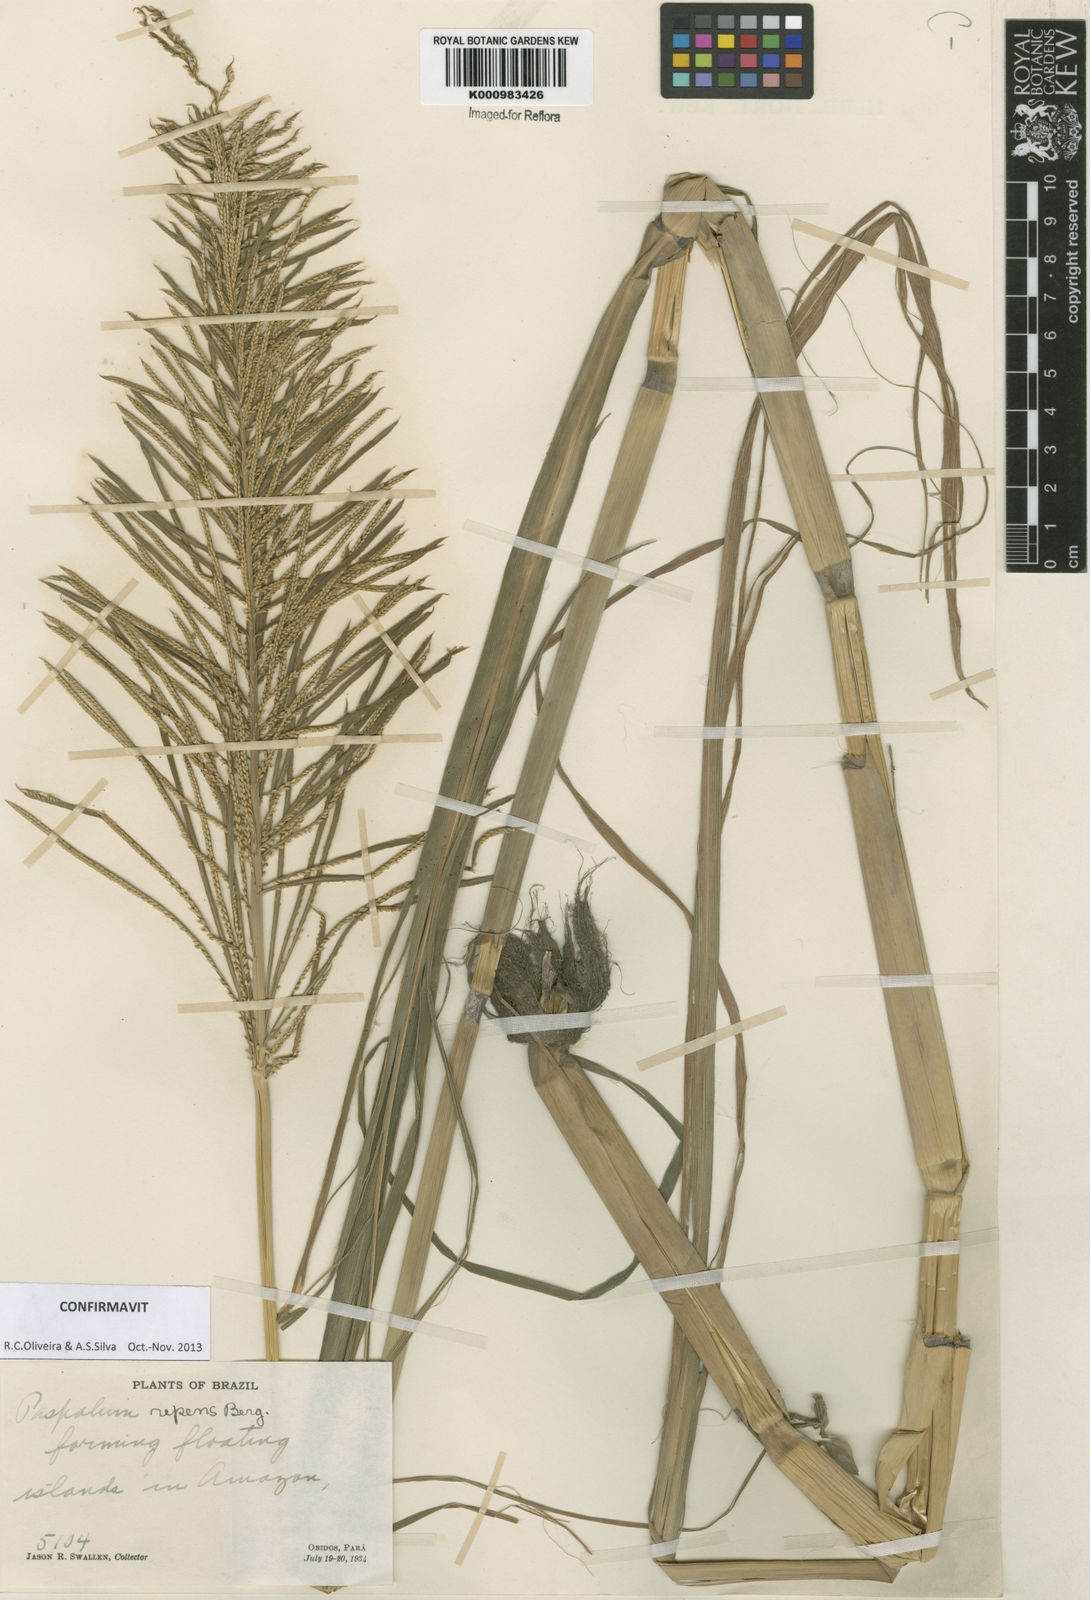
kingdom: Plantae
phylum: Tracheophyta
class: Liliopsida
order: Poales
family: Poaceae
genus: Paspalum
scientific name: Paspalum repens
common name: Water paspalum
